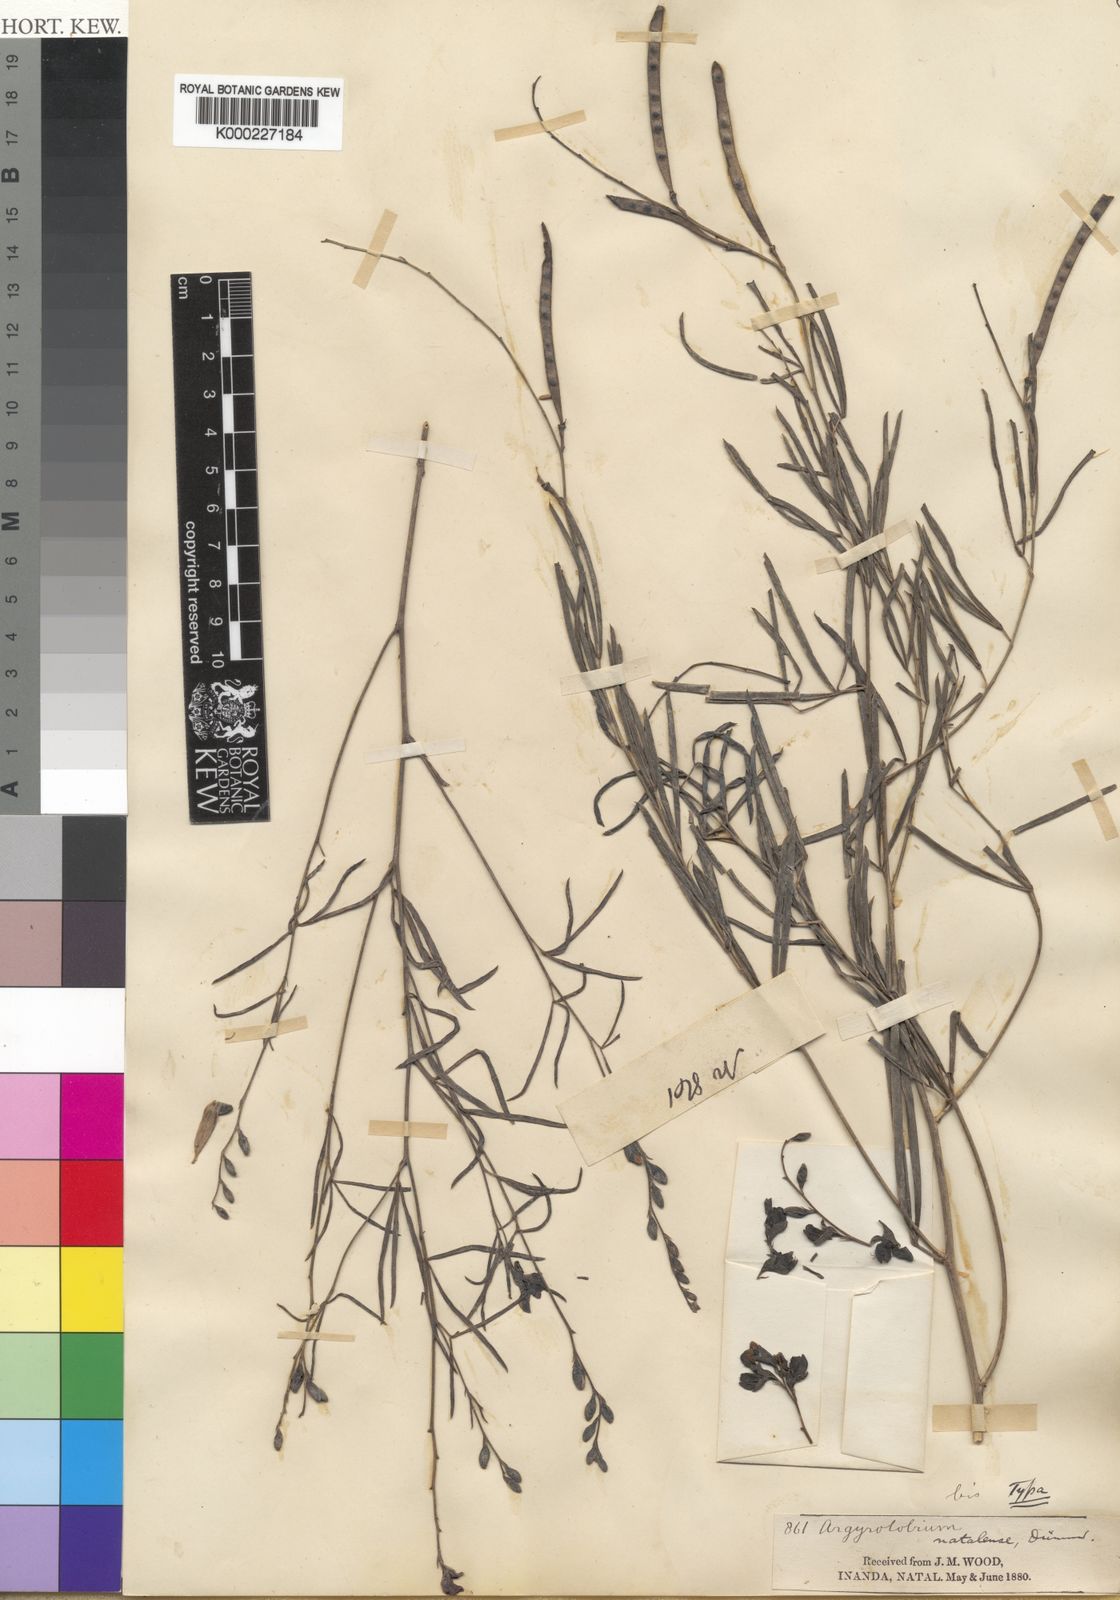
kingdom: Plantae
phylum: Tracheophyta
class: Magnoliopsida
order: Fabales
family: Fabaceae
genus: Argyrolobium
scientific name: Argyrolobium longifolium
